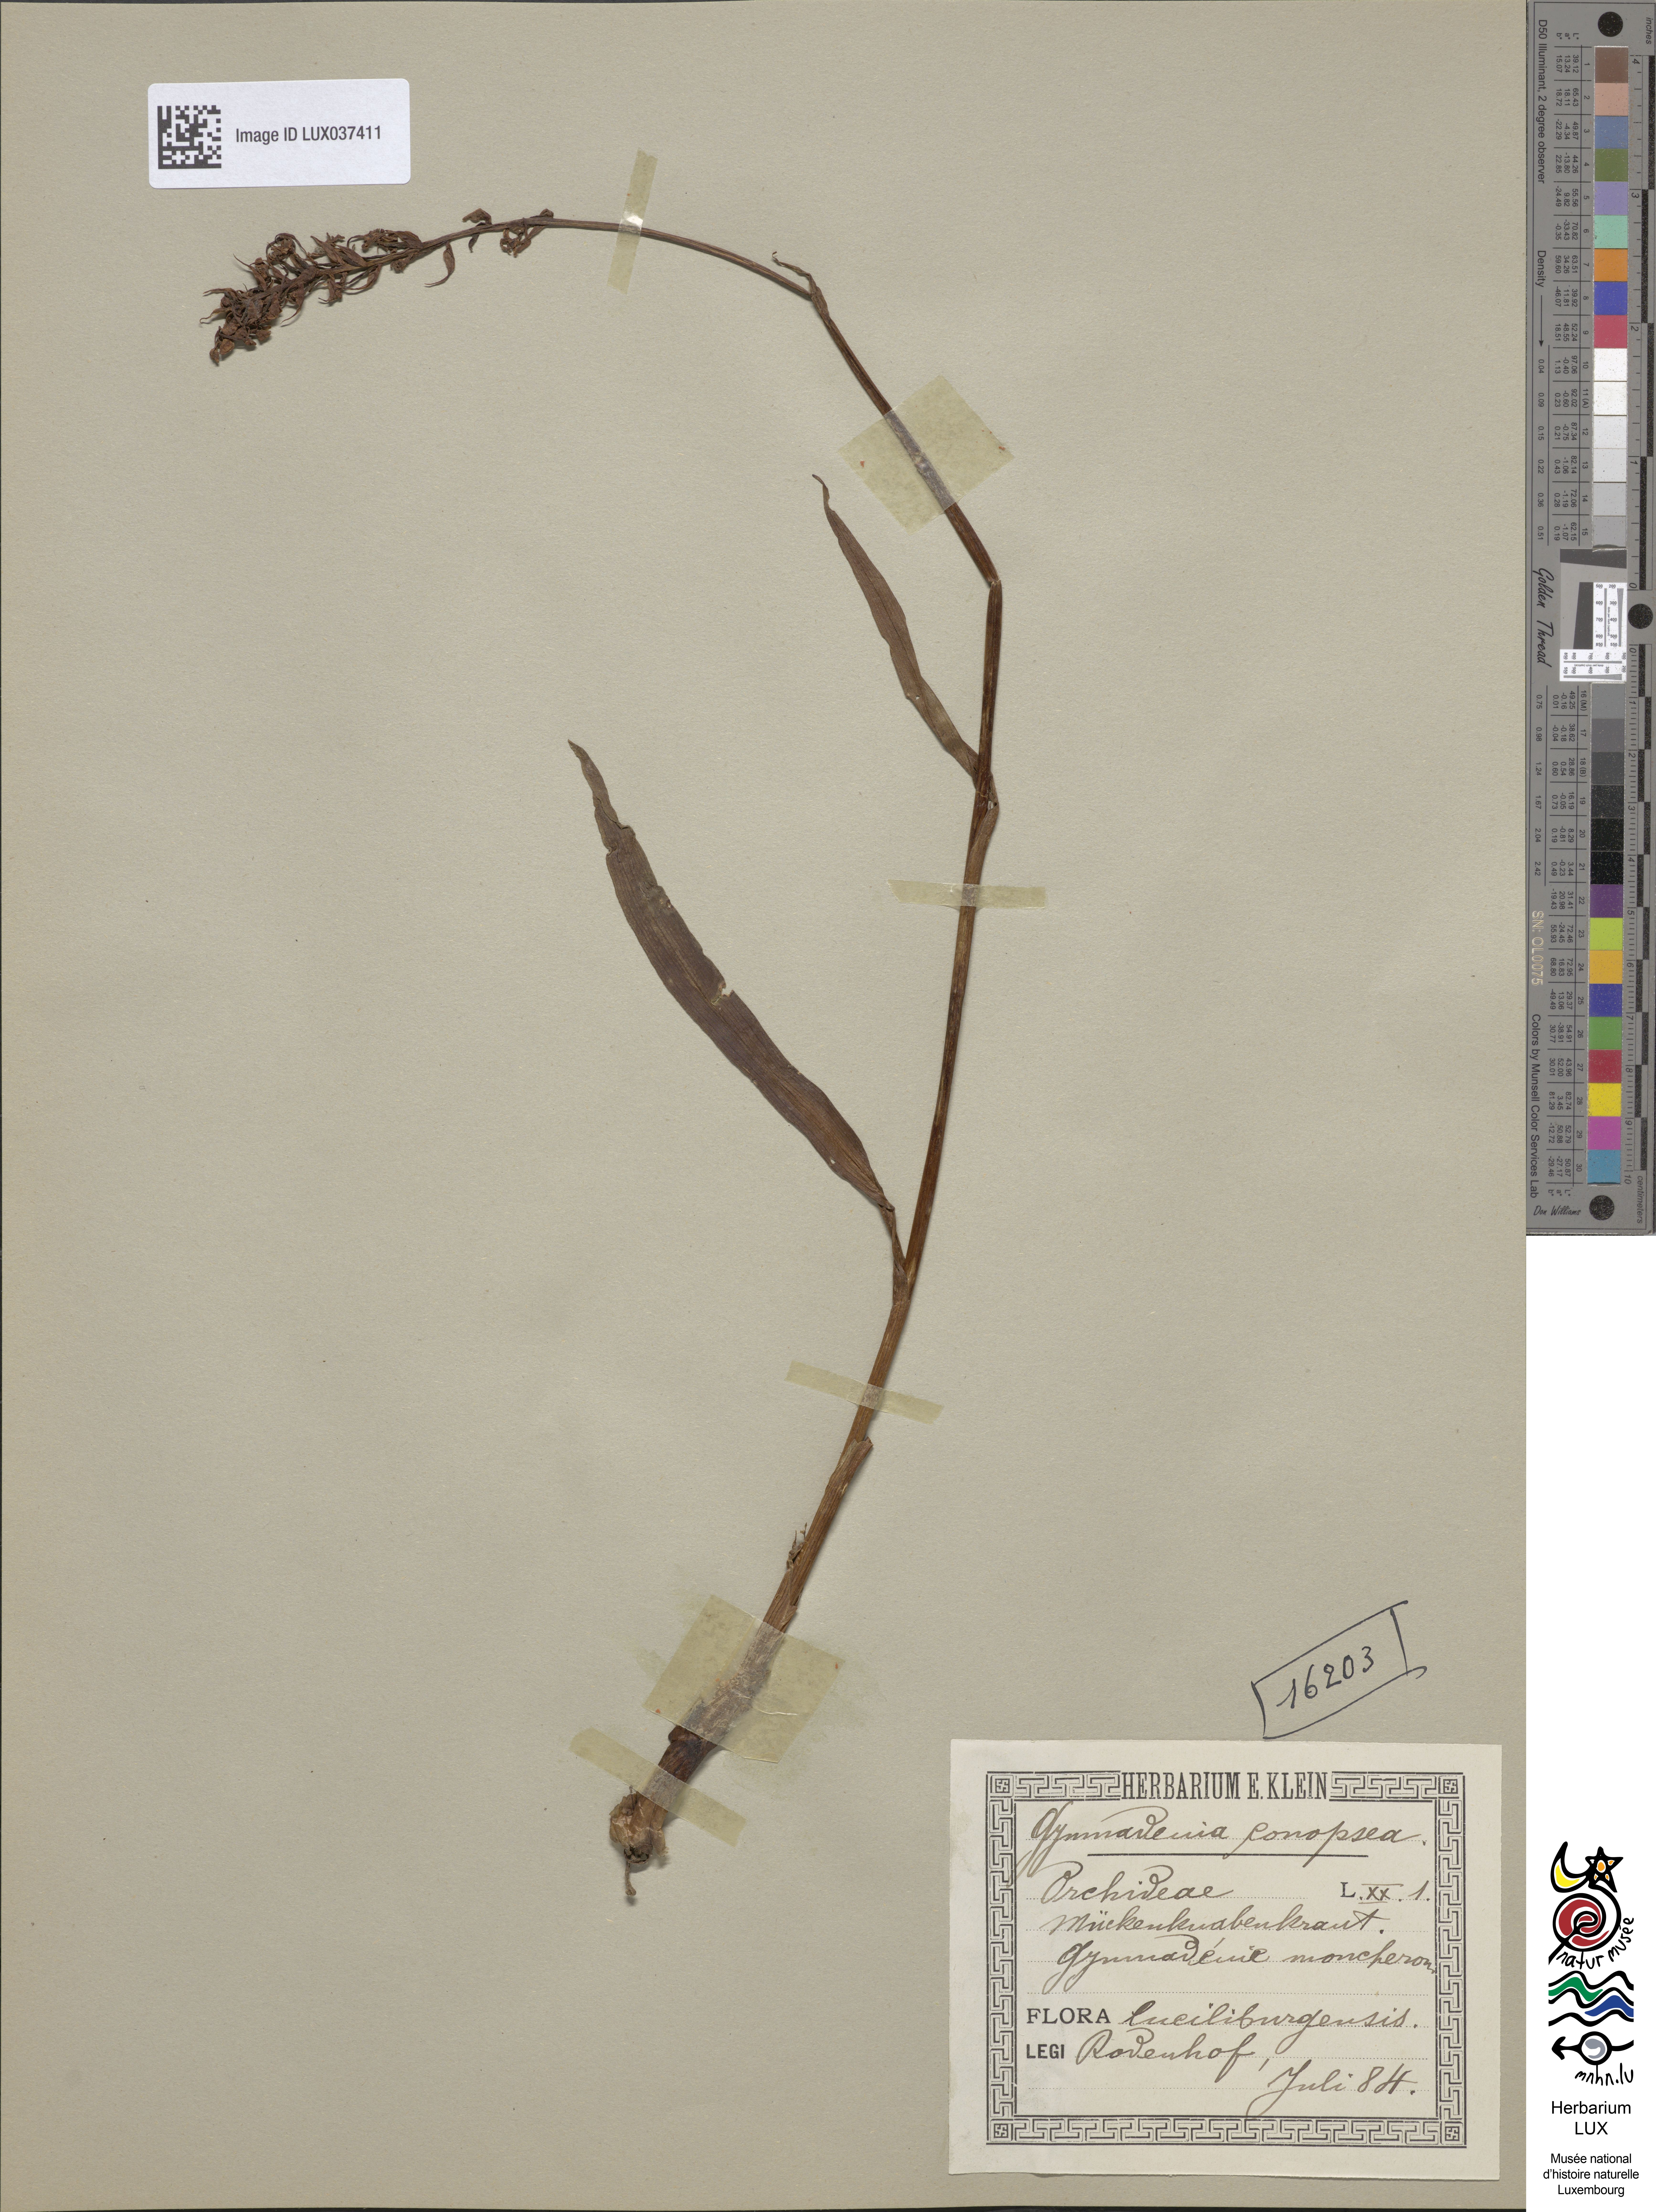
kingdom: Plantae
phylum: Tracheophyta
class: Liliopsida
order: Asparagales
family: Orchidaceae
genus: Gymnadenia
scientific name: Gymnadenia conopsea
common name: Fragrant orchid
